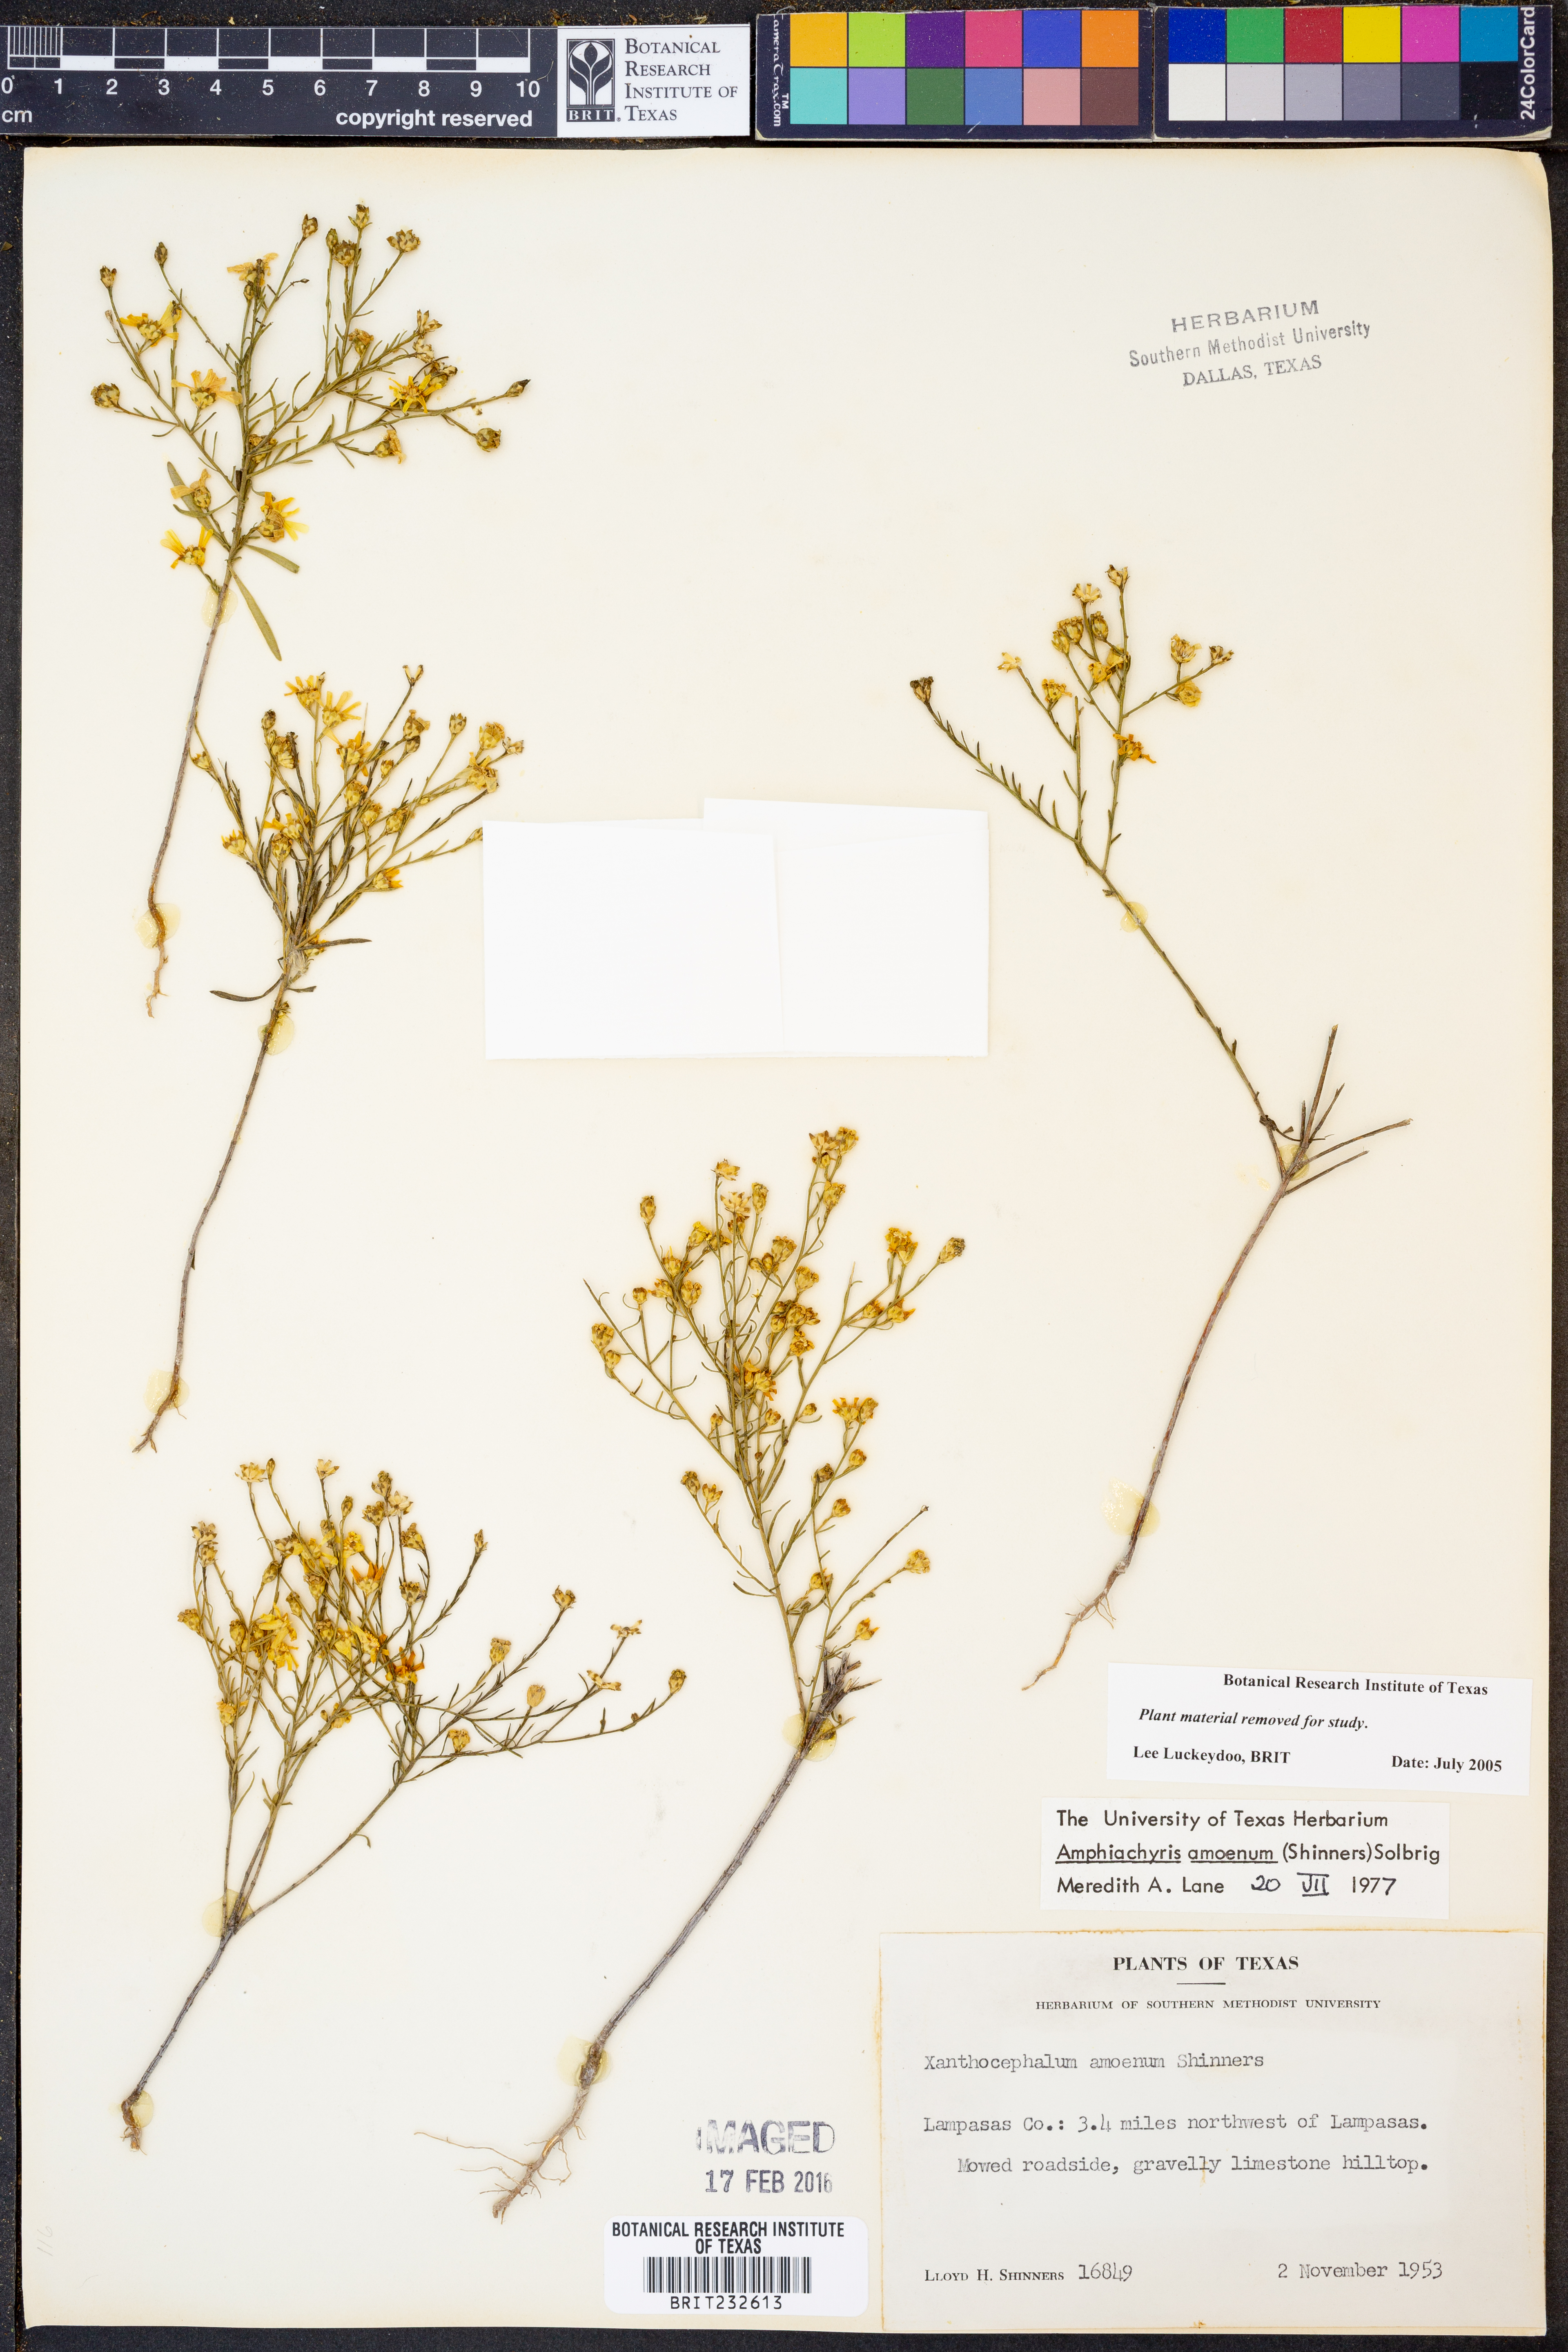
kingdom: Plantae
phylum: Tracheophyta
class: Magnoliopsida
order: Asterales
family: Asteraceae
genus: Amphiachyris
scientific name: Amphiachyris amoenum
